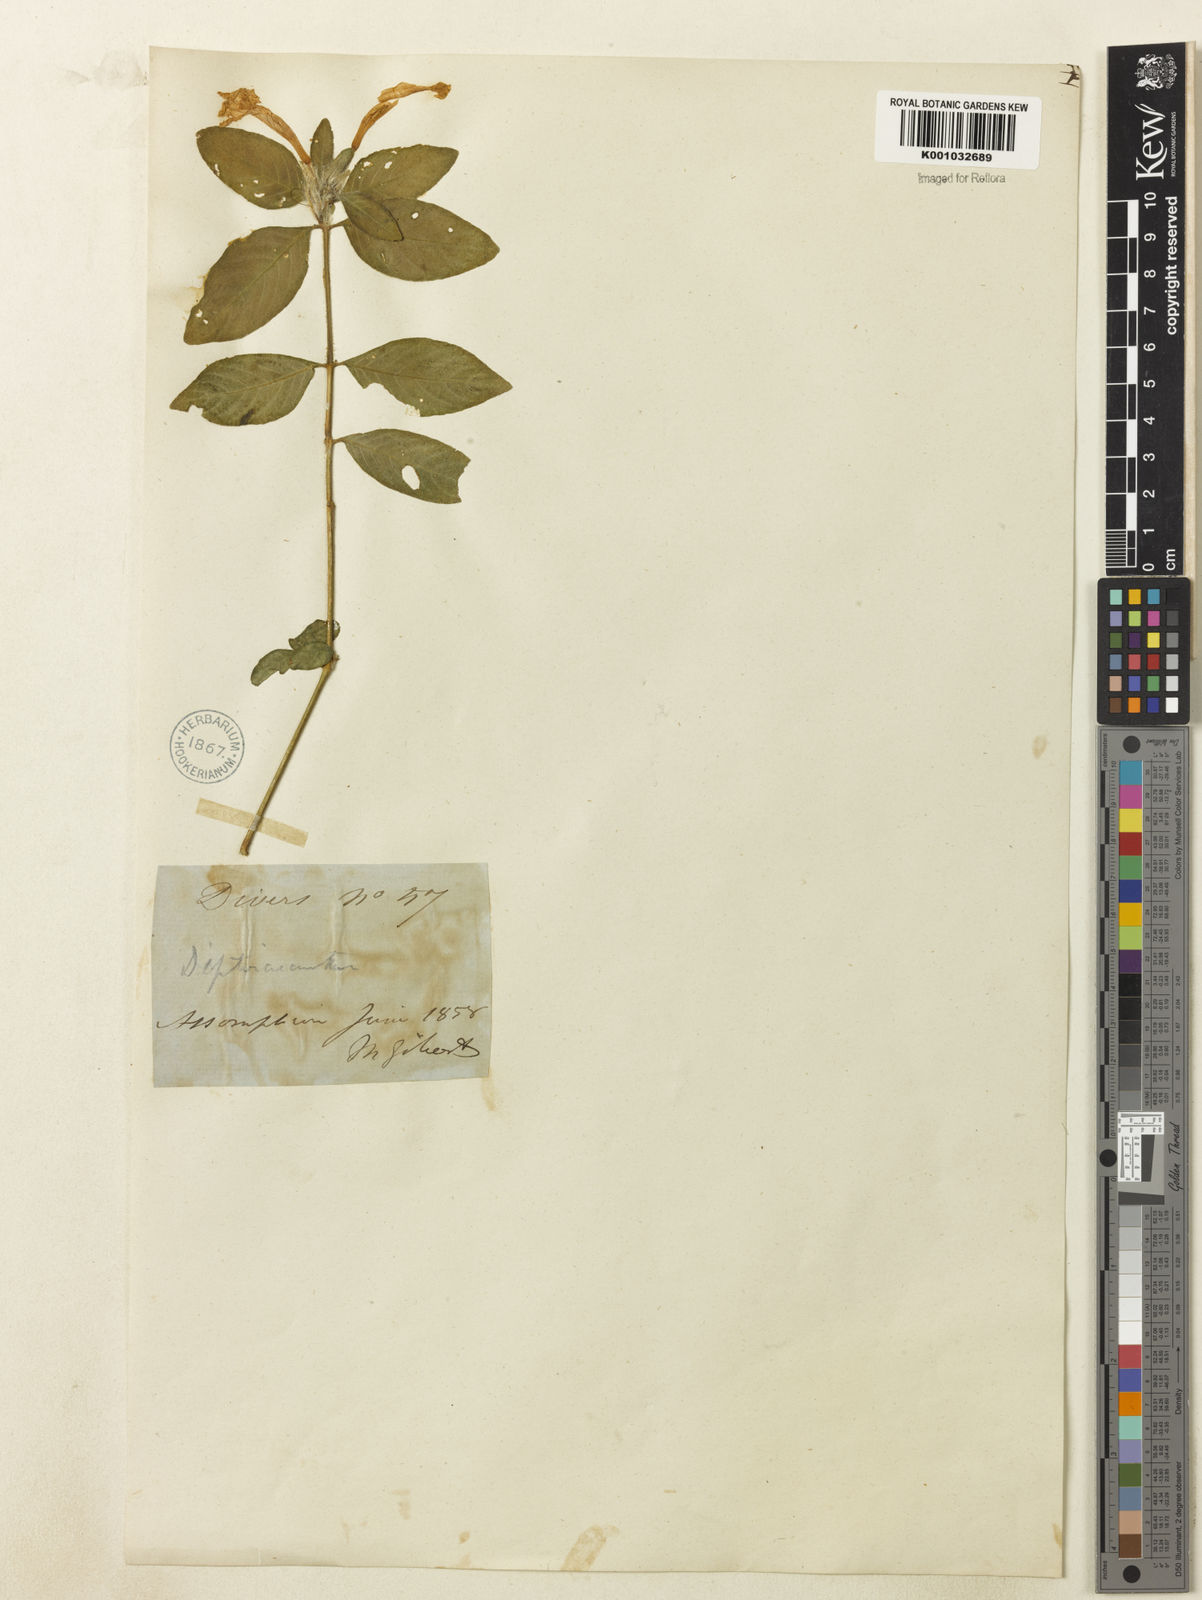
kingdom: Plantae
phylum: Tracheophyta
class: Magnoliopsida
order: Lamiales
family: Acanthaceae
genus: Ruellia
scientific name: Ruellia
